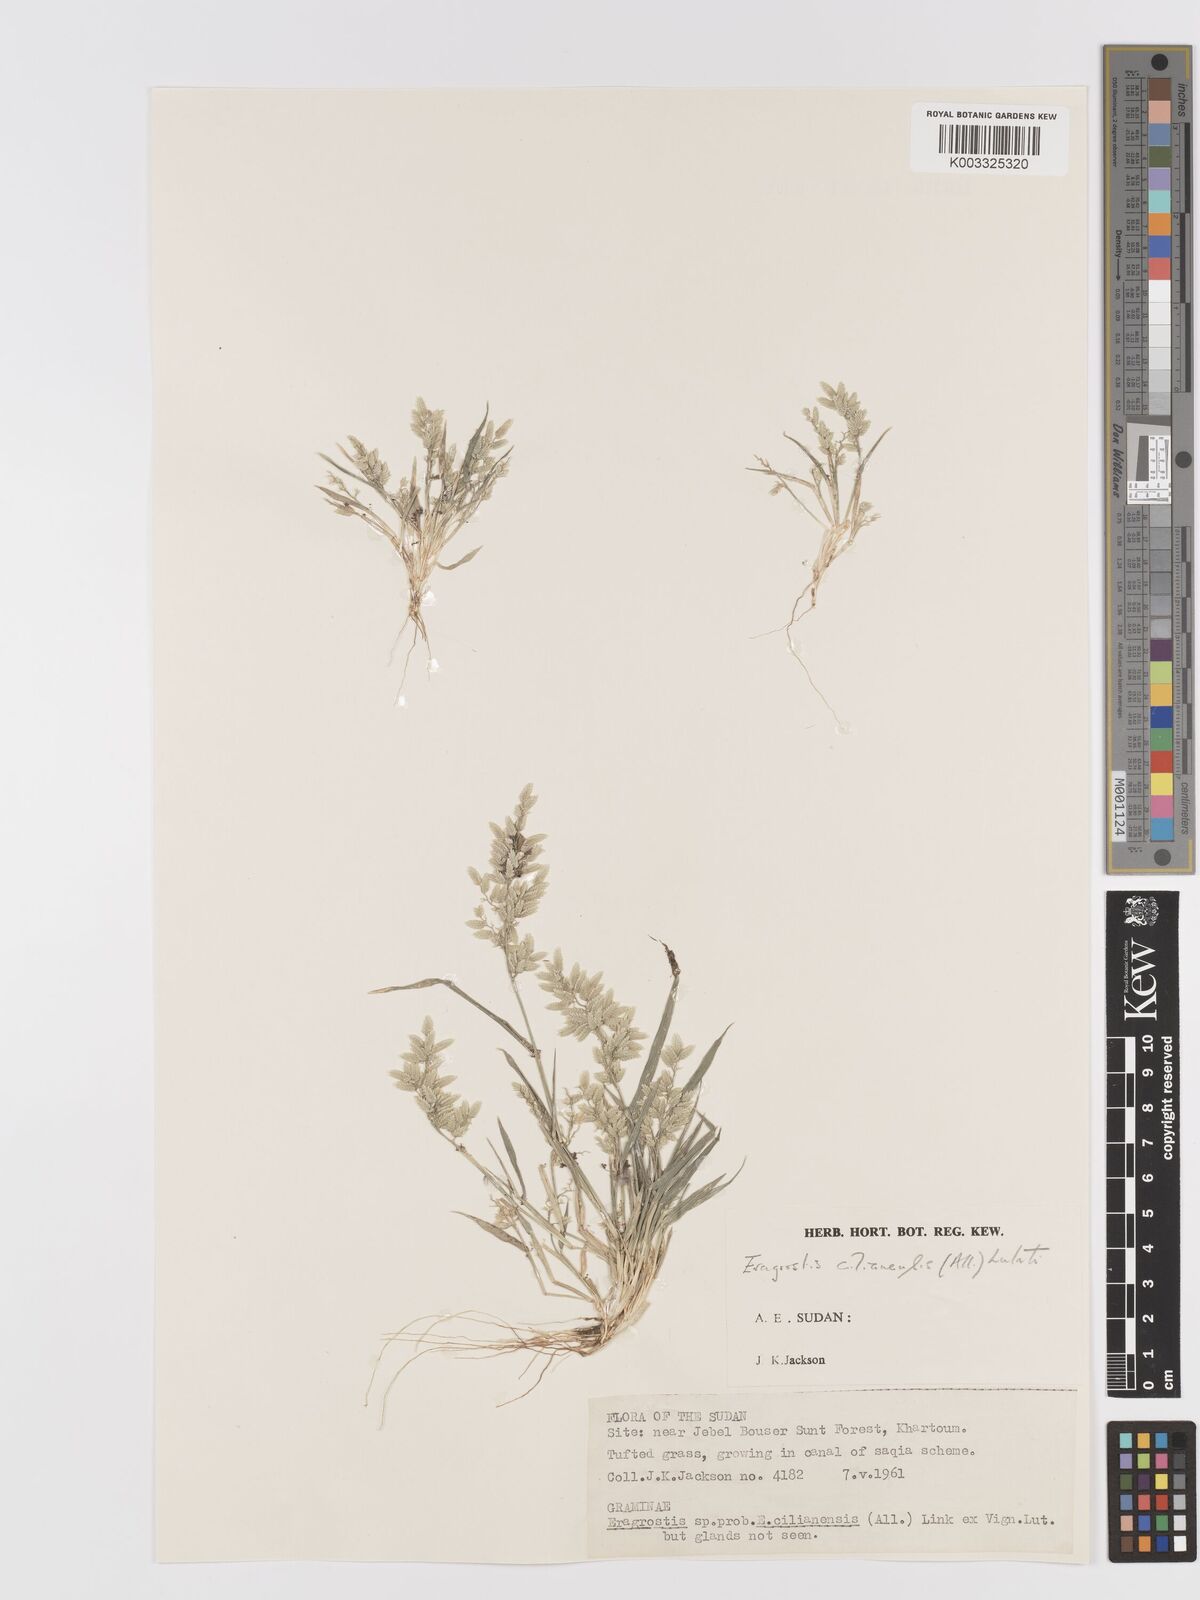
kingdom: Plantae
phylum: Tracheophyta
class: Liliopsida
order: Poales
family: Poaceae
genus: Eragrostis
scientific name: Eragrostis cilianensis
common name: Stinkgrass
